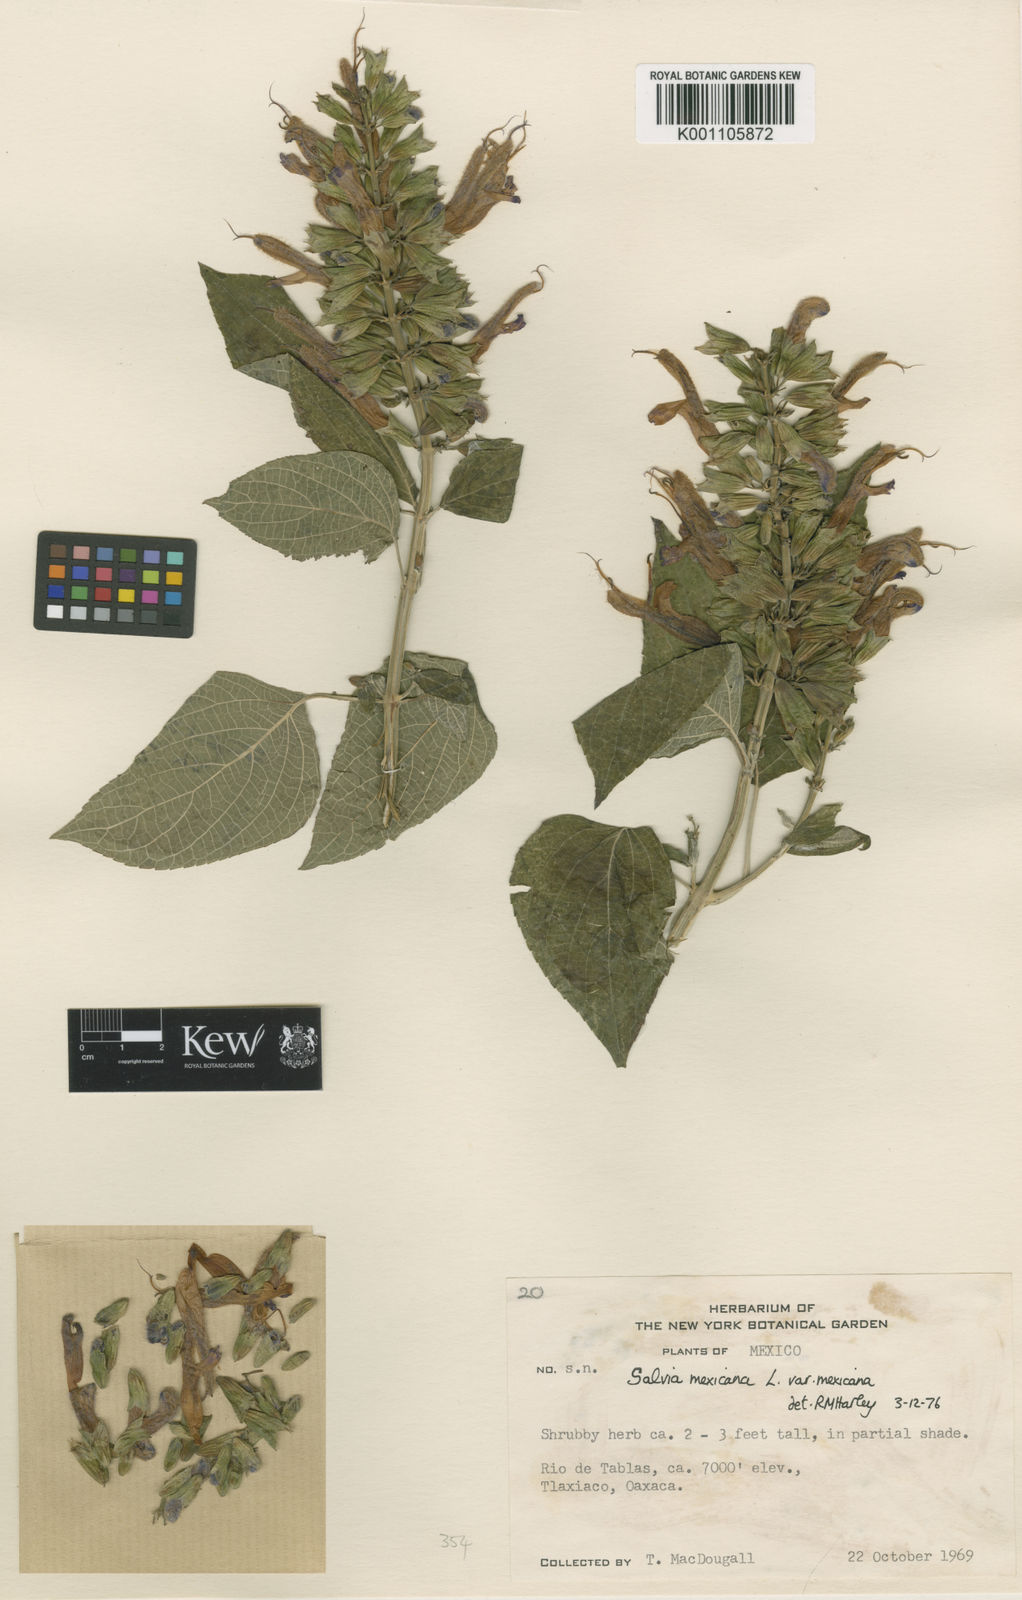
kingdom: Plantae
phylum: Tracheophyta
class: Magnoliopsida
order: Lamiales
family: Lamiaceae
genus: Salvia
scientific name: Salvia discolor
